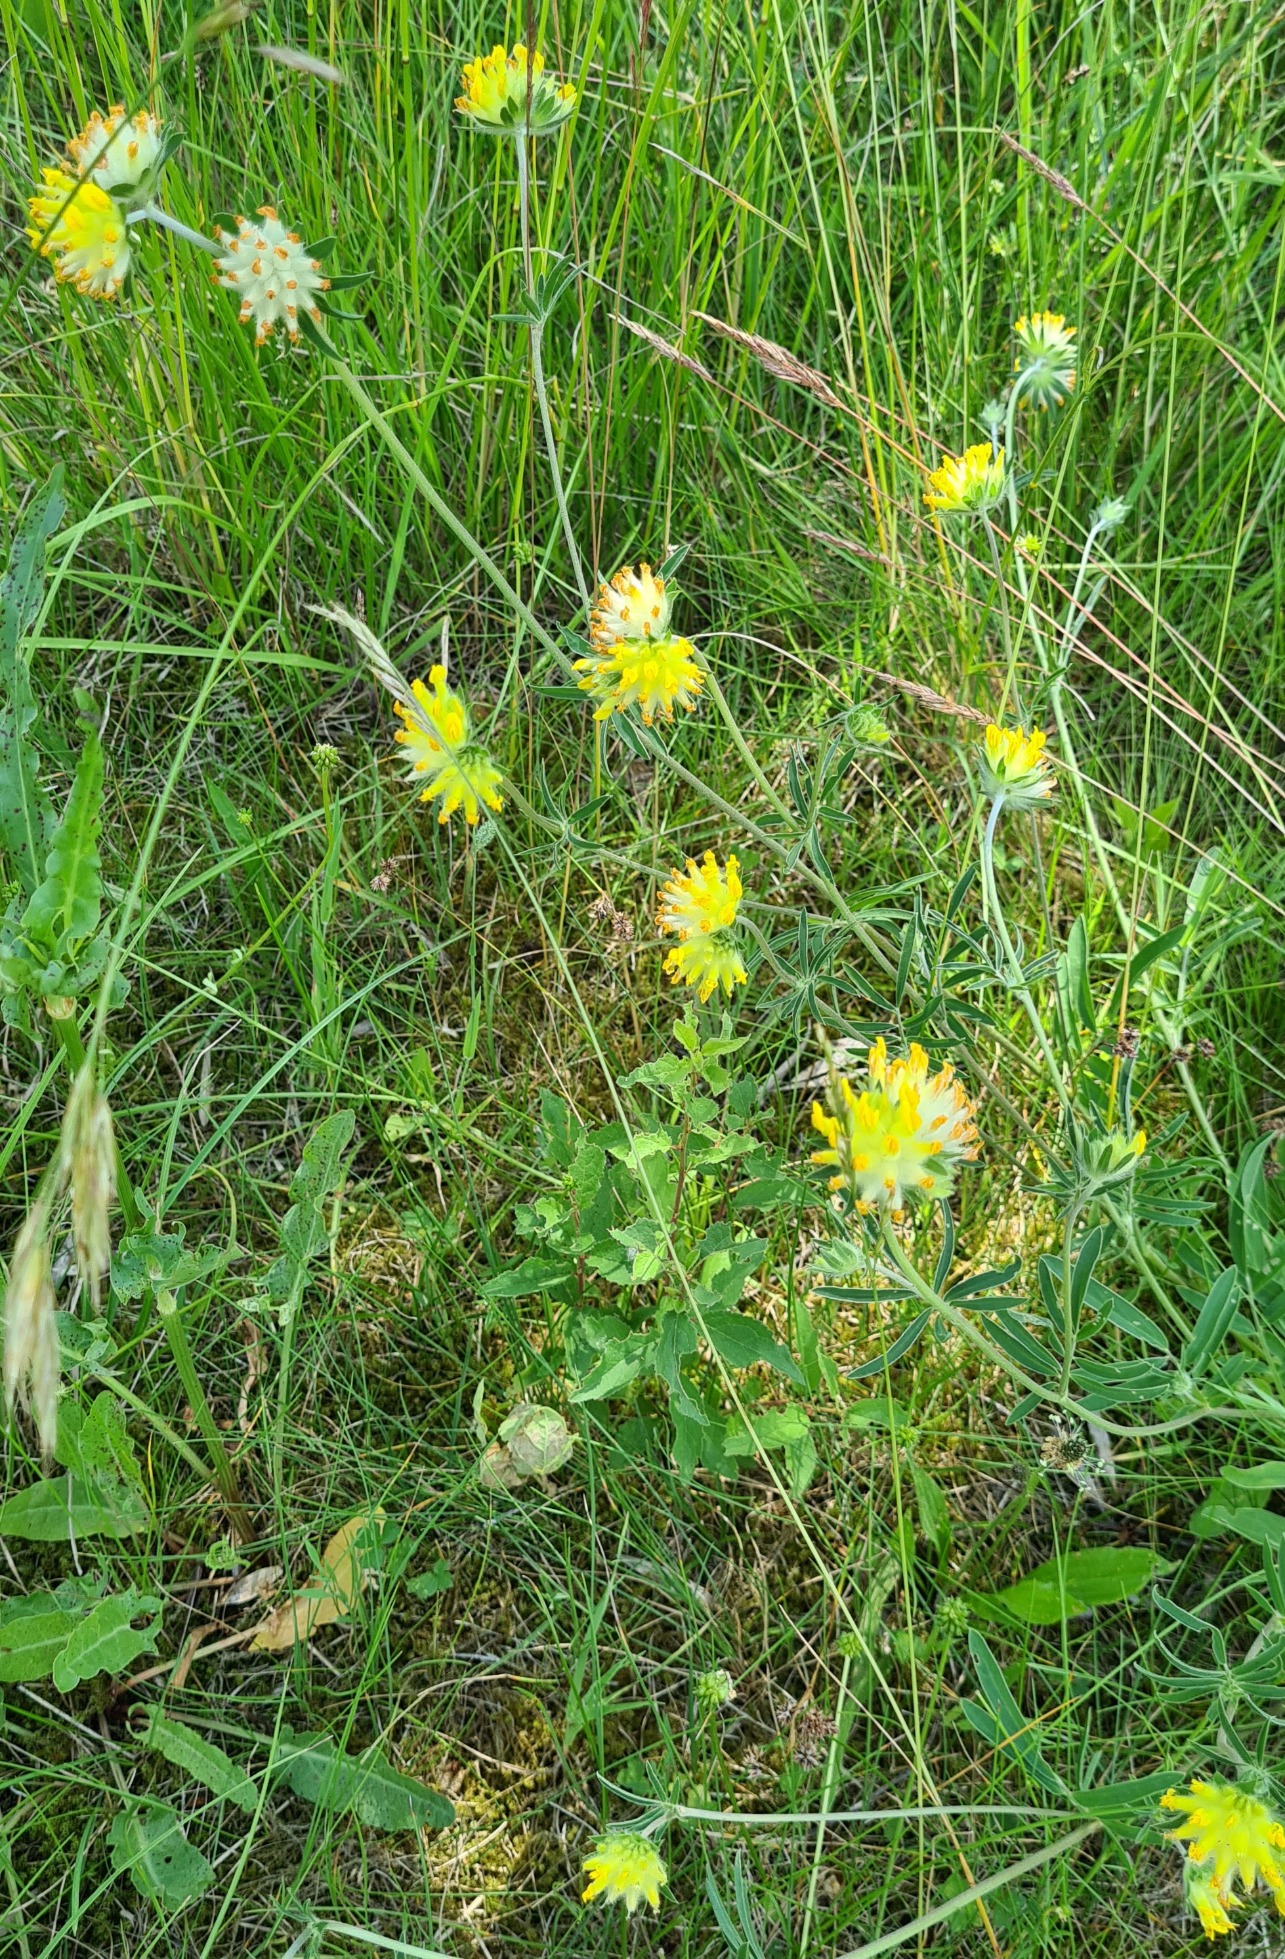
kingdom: Plantae
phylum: Tracheophyta
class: Magnoliopsida
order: Fabales
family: Fabaceae
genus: Anthyllis
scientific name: Anthyllis vulneraria
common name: Rundbælg
